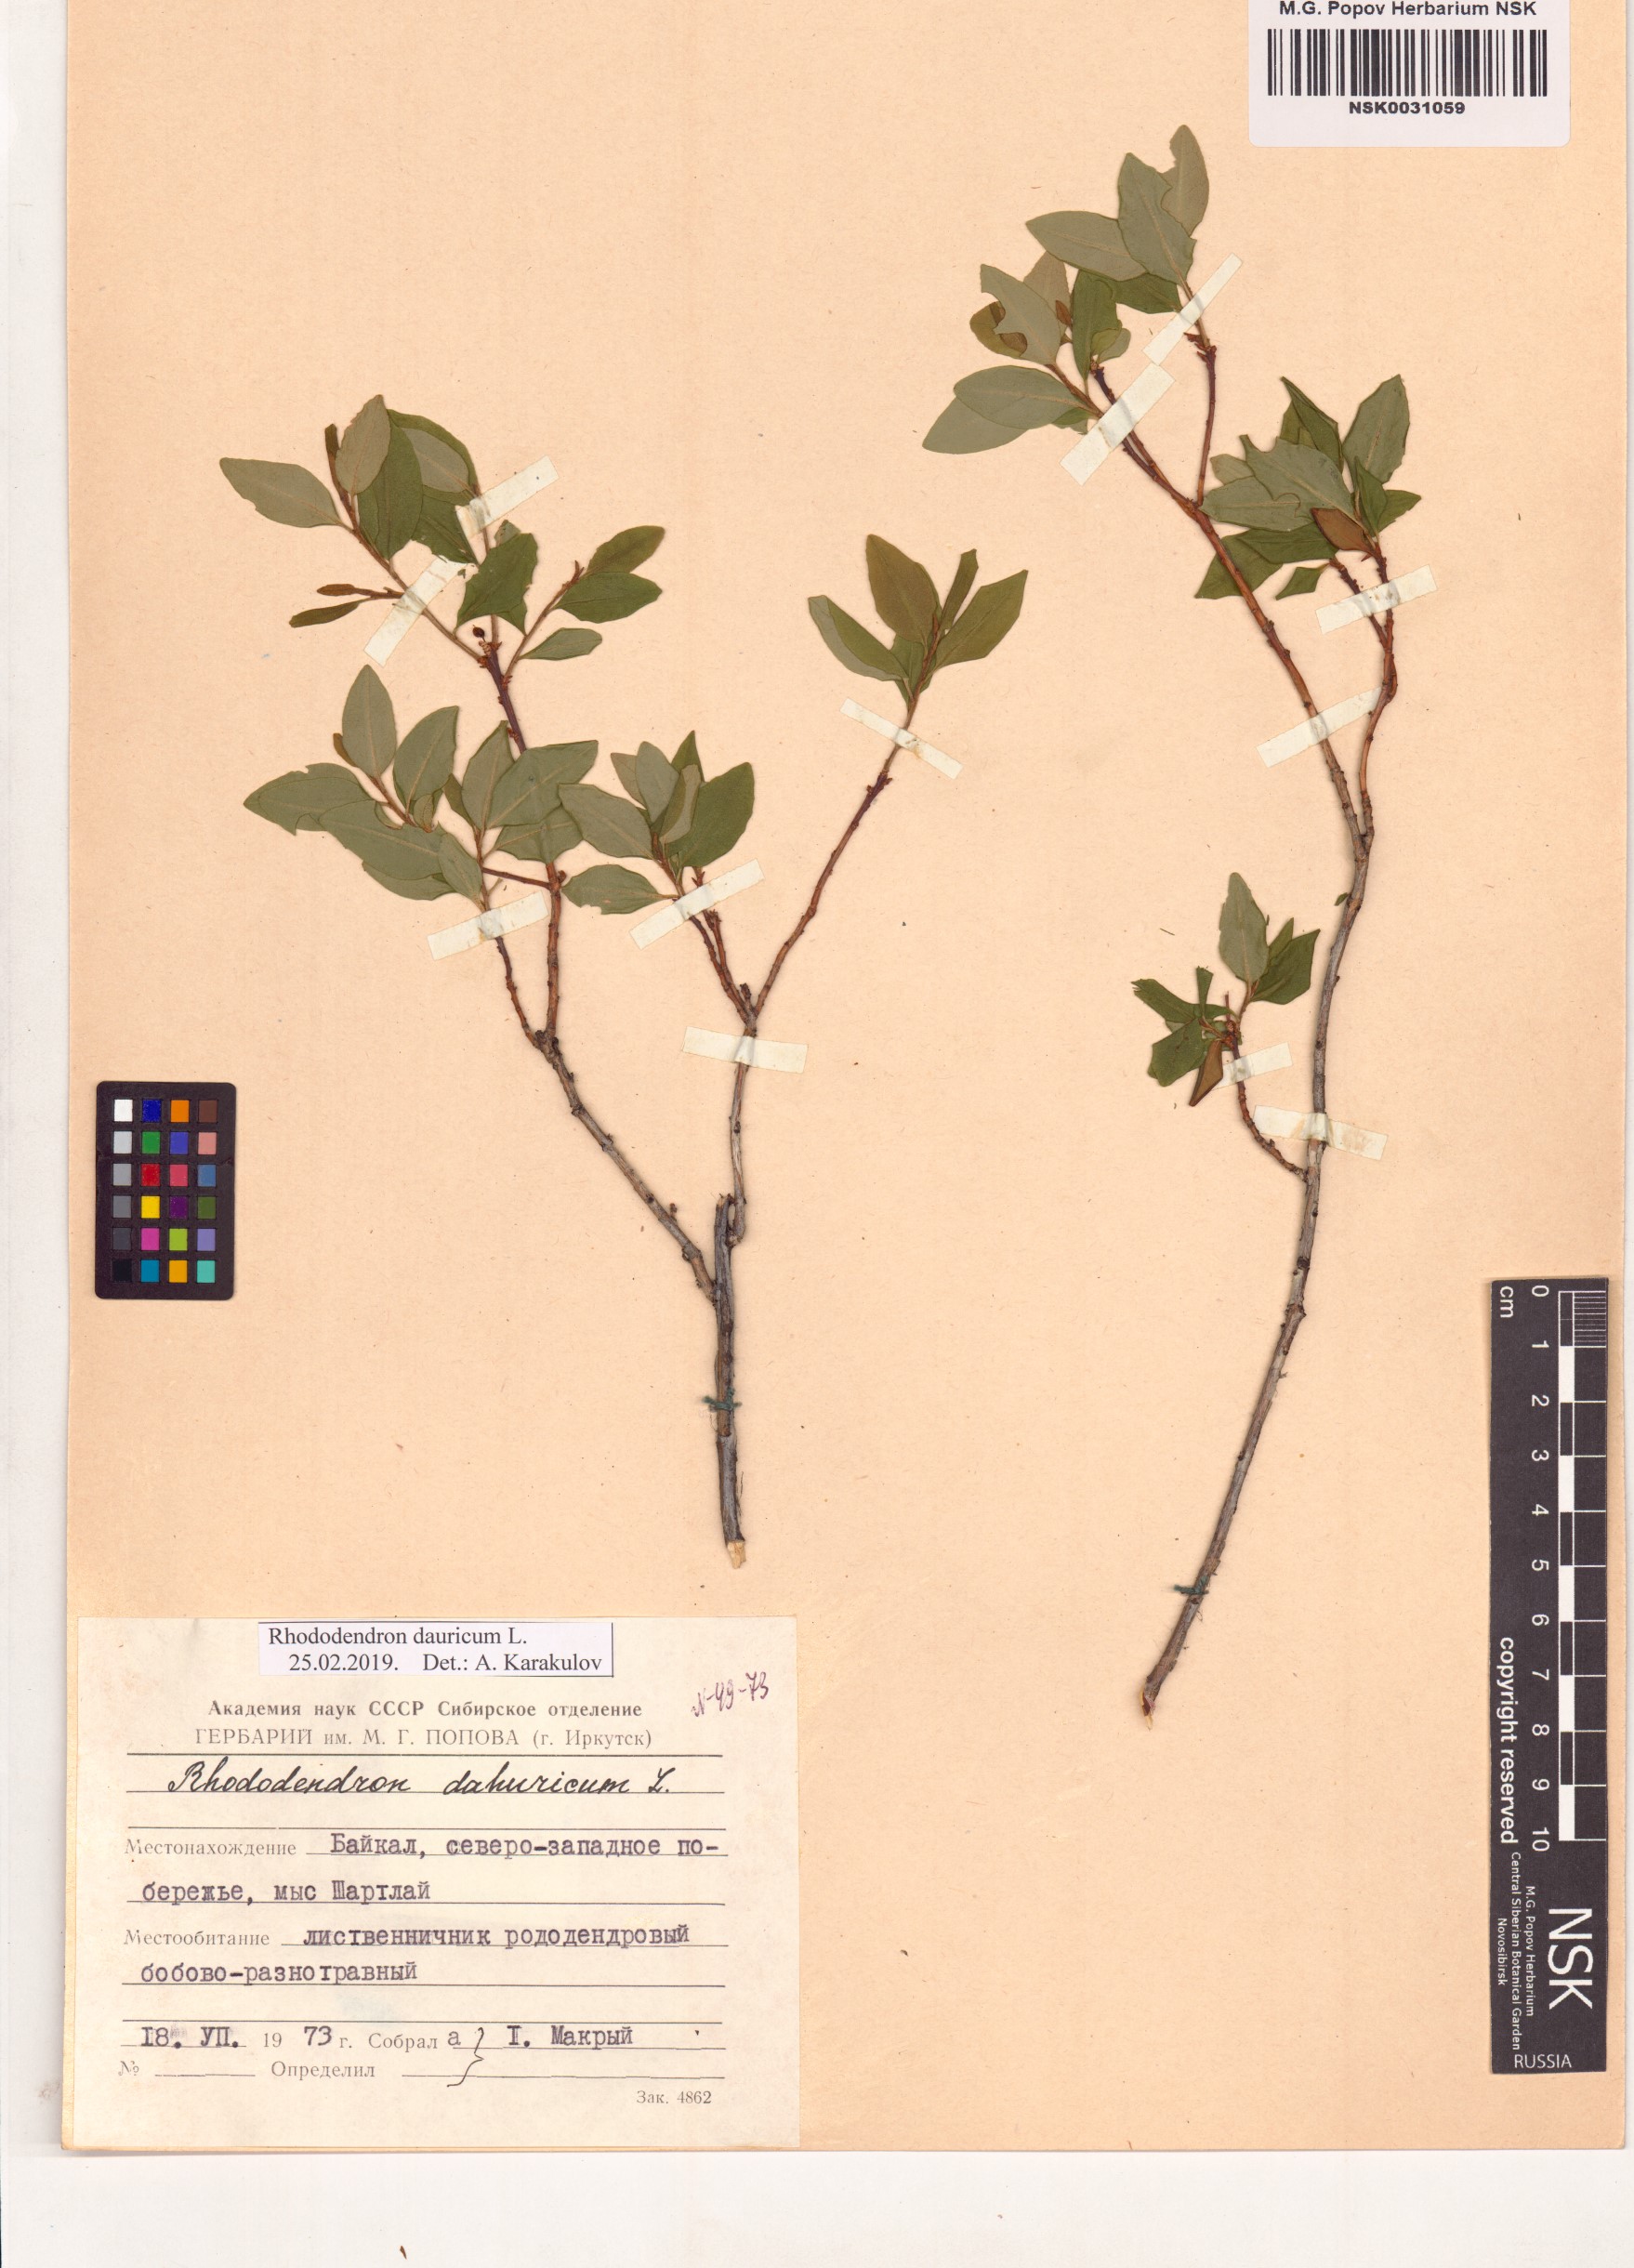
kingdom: Plantae
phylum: Tracheophyta
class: Magnoliopsida
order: Ericales
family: Ericaceae
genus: Rhododendron
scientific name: Rhododendron dauricum
